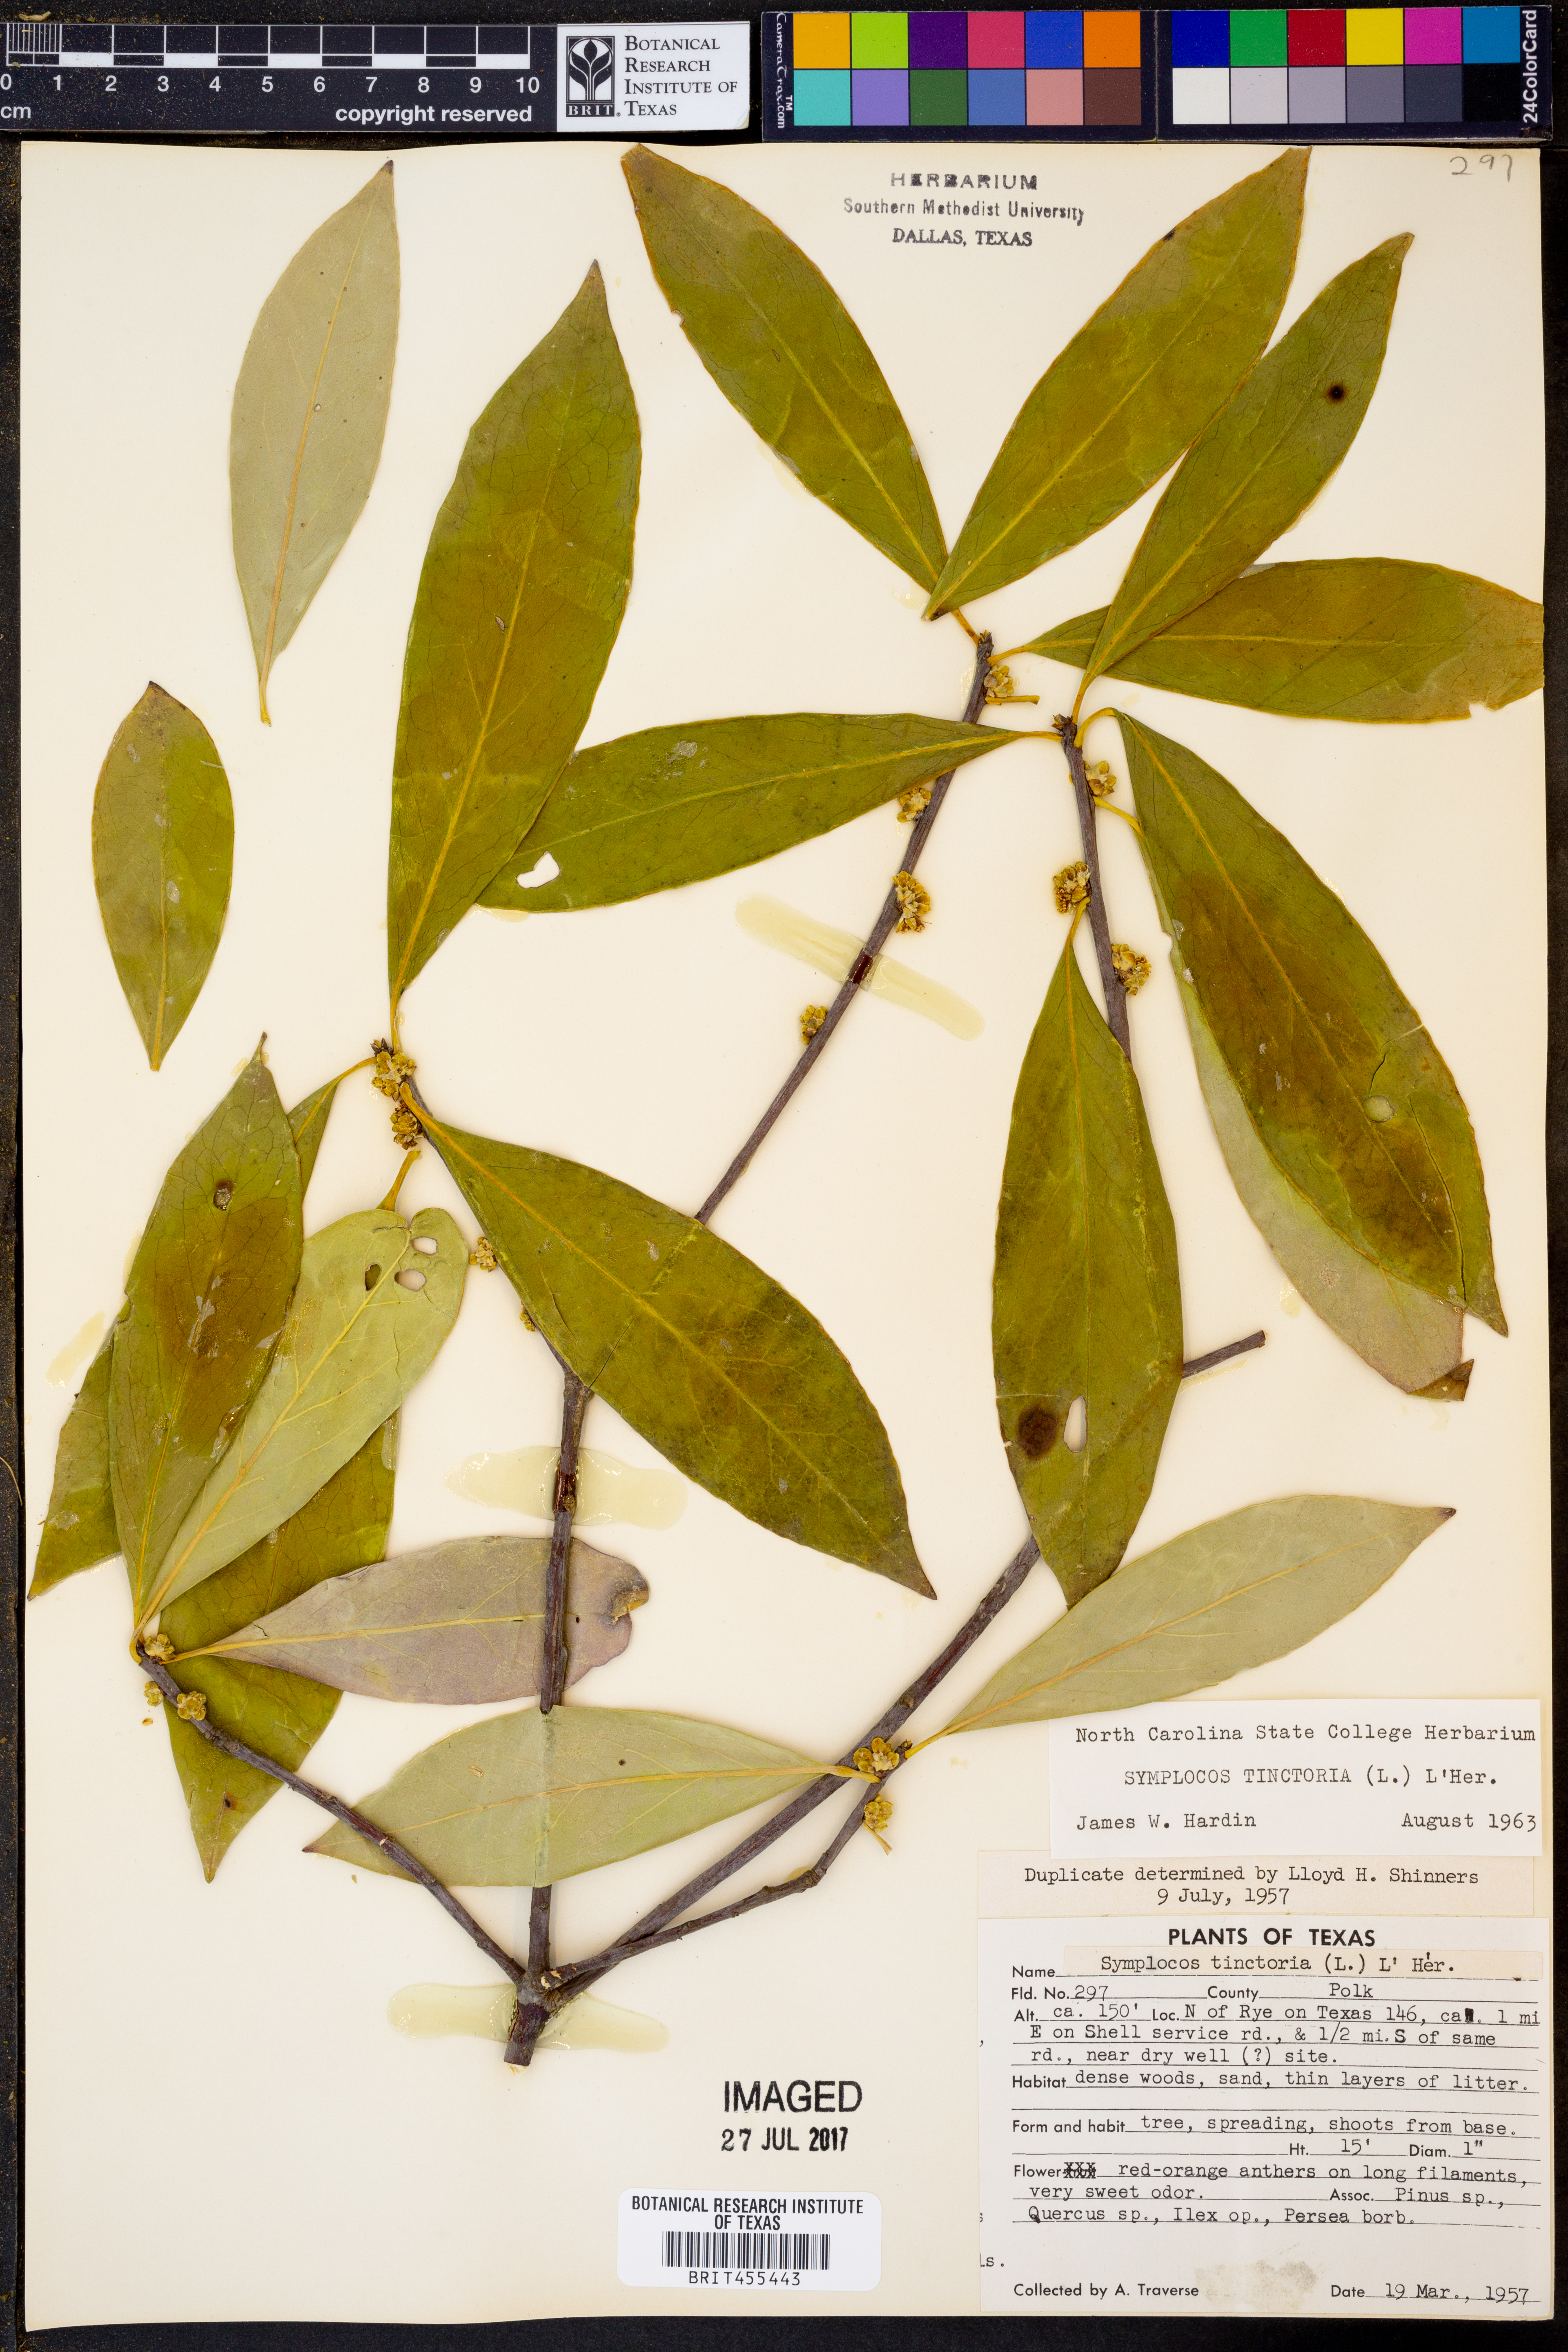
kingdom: Plantae
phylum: Tracheophyta
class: Magnoliopsida
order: Ericales
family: Symplocaceae
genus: Symplocos
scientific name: Symplocos tinctoria
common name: Horse-sugar
